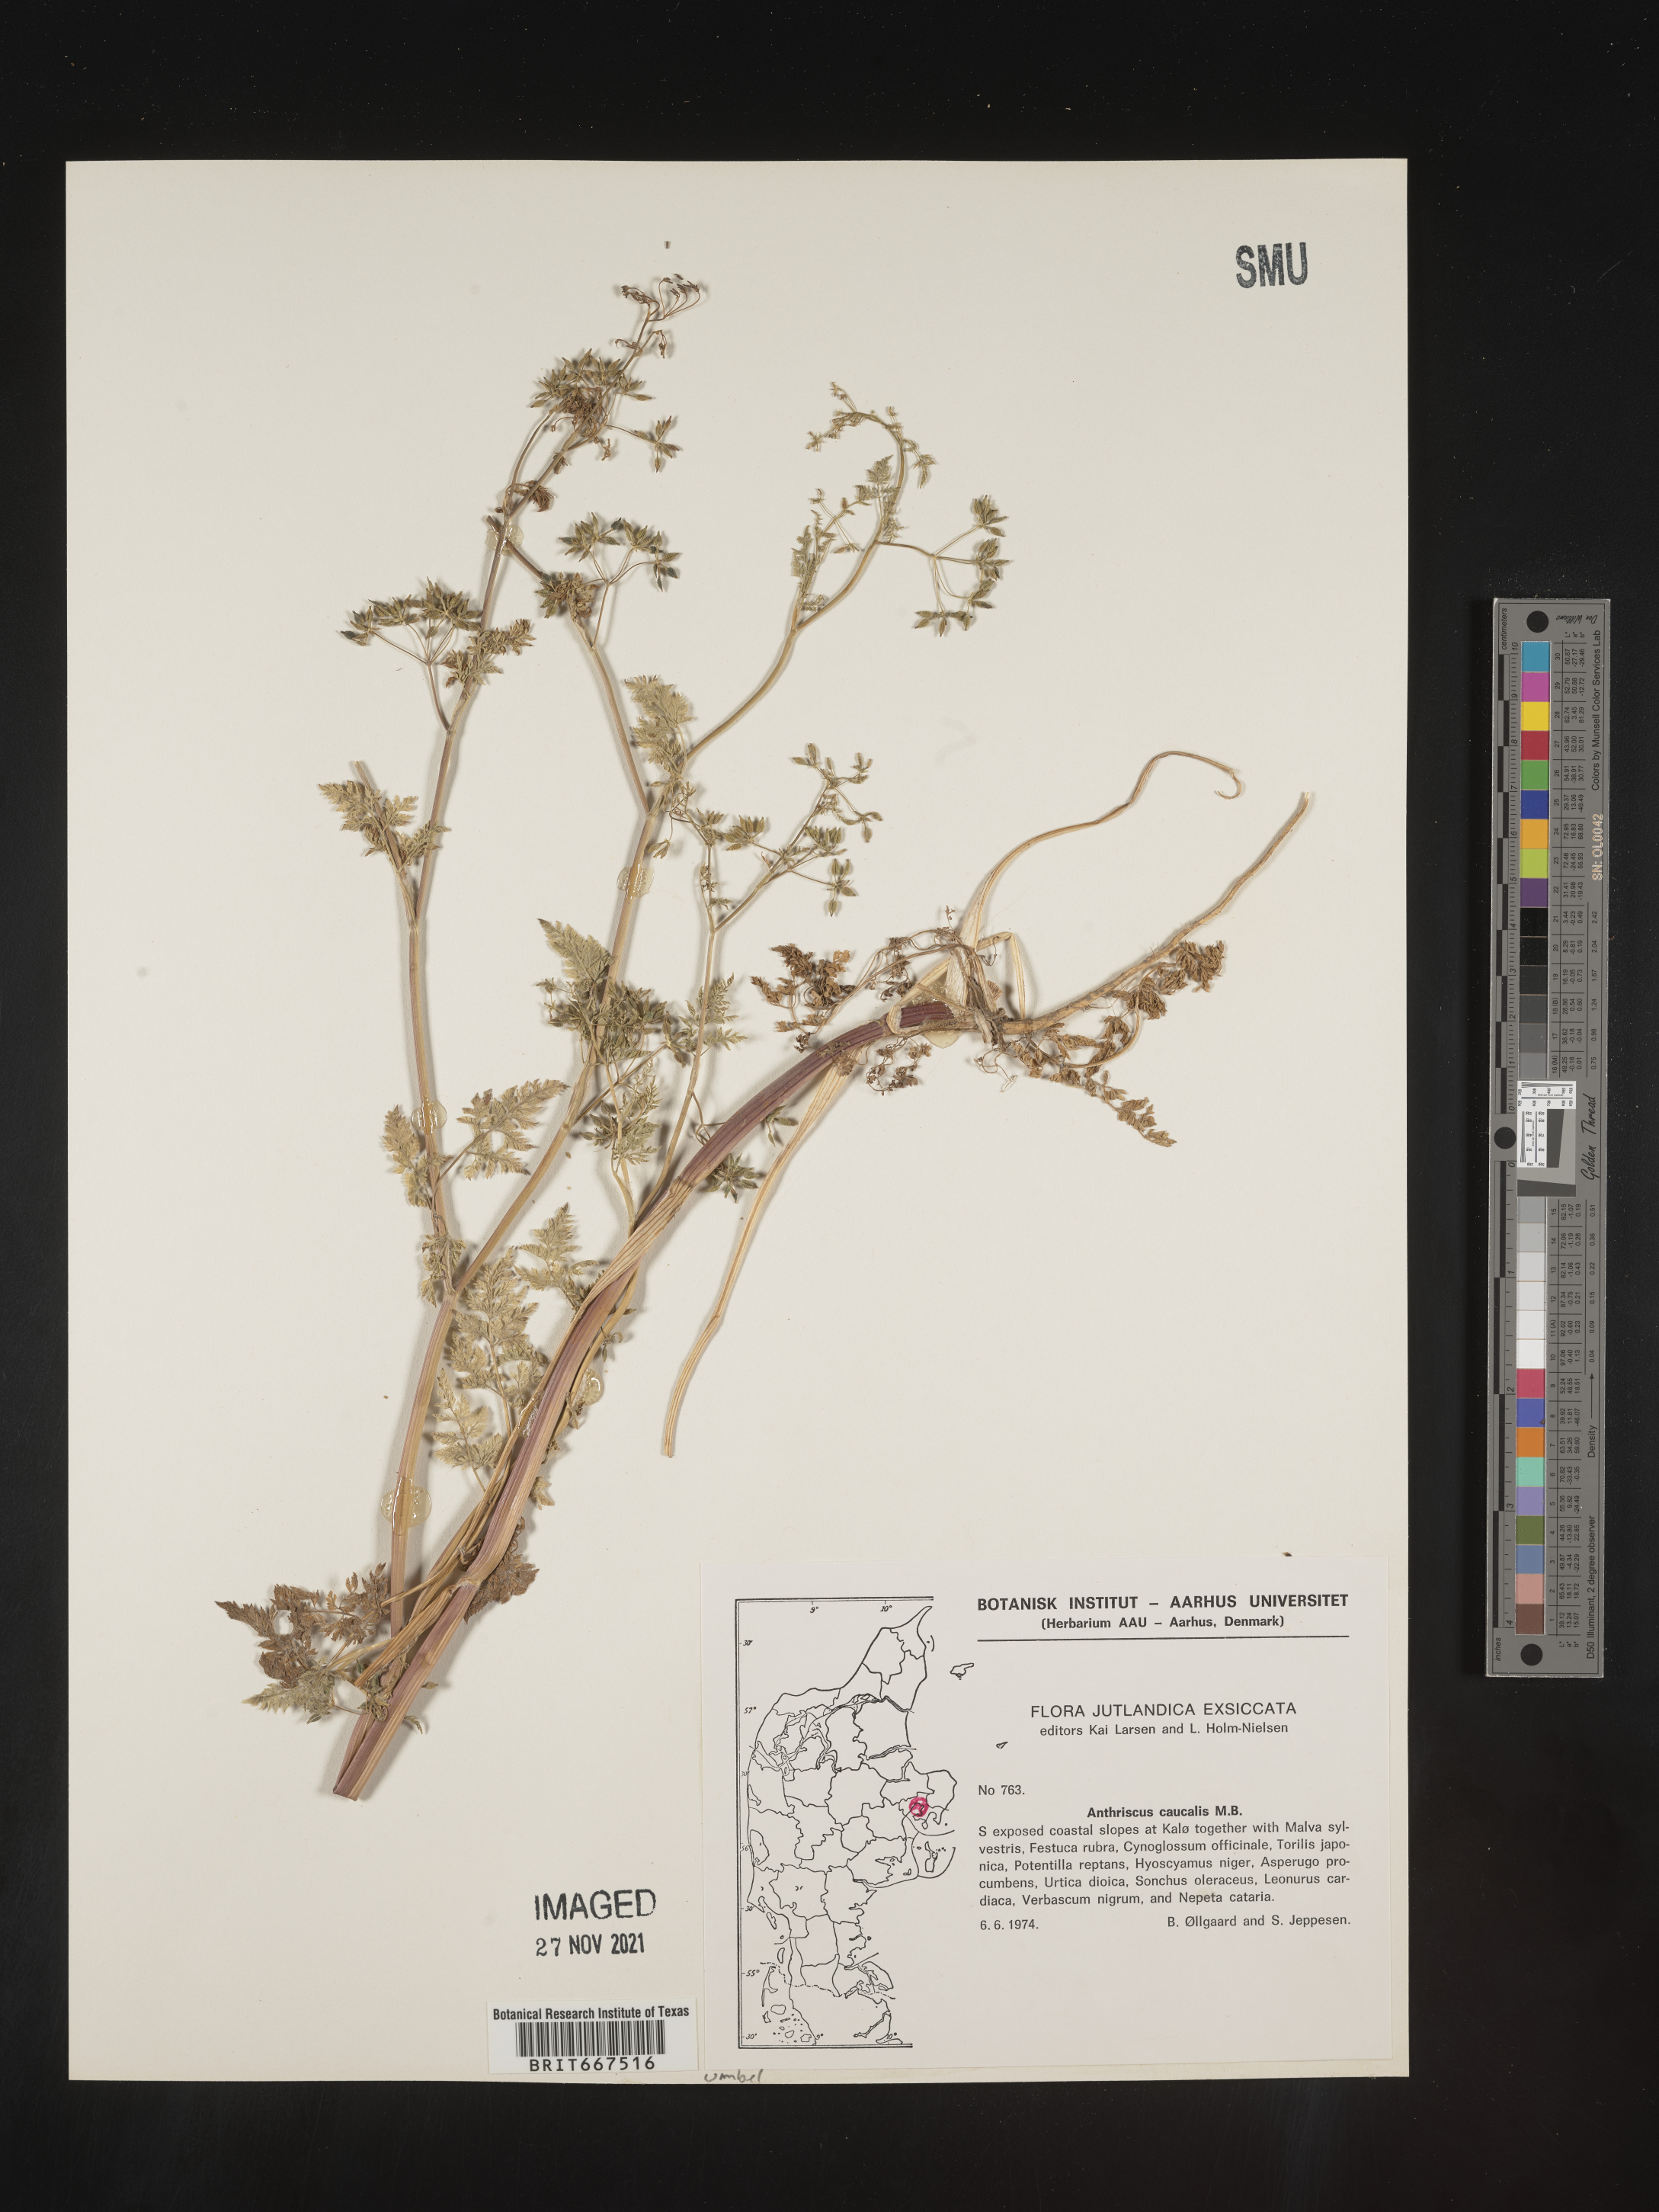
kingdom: Plantae
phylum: Tracheophyta
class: Magnoliopsida
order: Apiales
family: Apiaceae
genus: Anthriscus
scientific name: Anthriscus
